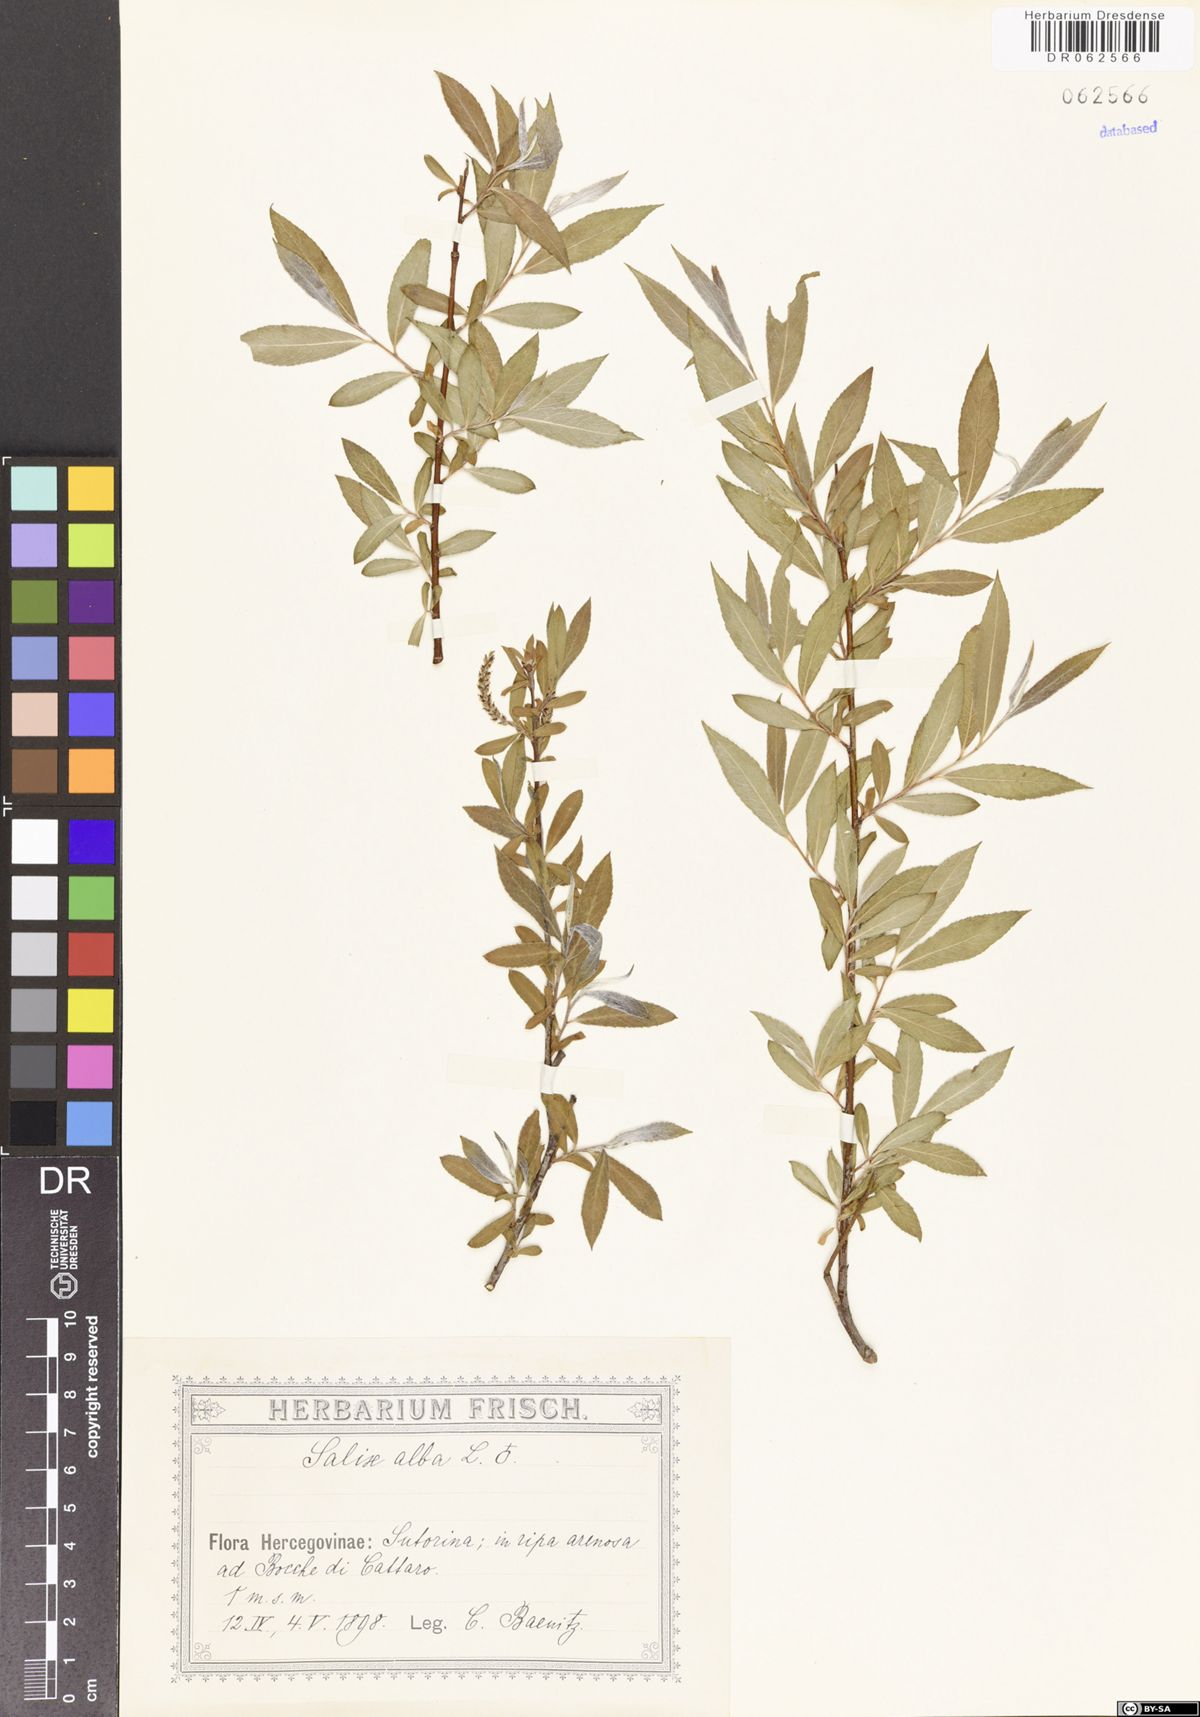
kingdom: Plantae
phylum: Tracheophyta
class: Magnoliopsida
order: Malpighiales
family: Salicaceae
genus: Salix
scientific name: Salix alba
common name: White willow
